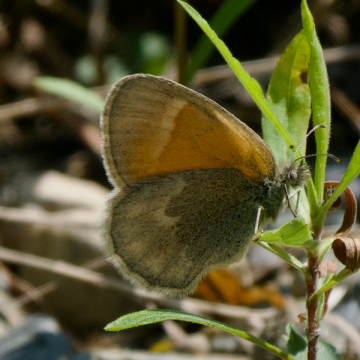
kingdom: Animalia
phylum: Arthropoda
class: Insecta
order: Lepidoptera
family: Nymphalidae
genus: Coenonympha
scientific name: Coenonympha tullia
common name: Large Heath
